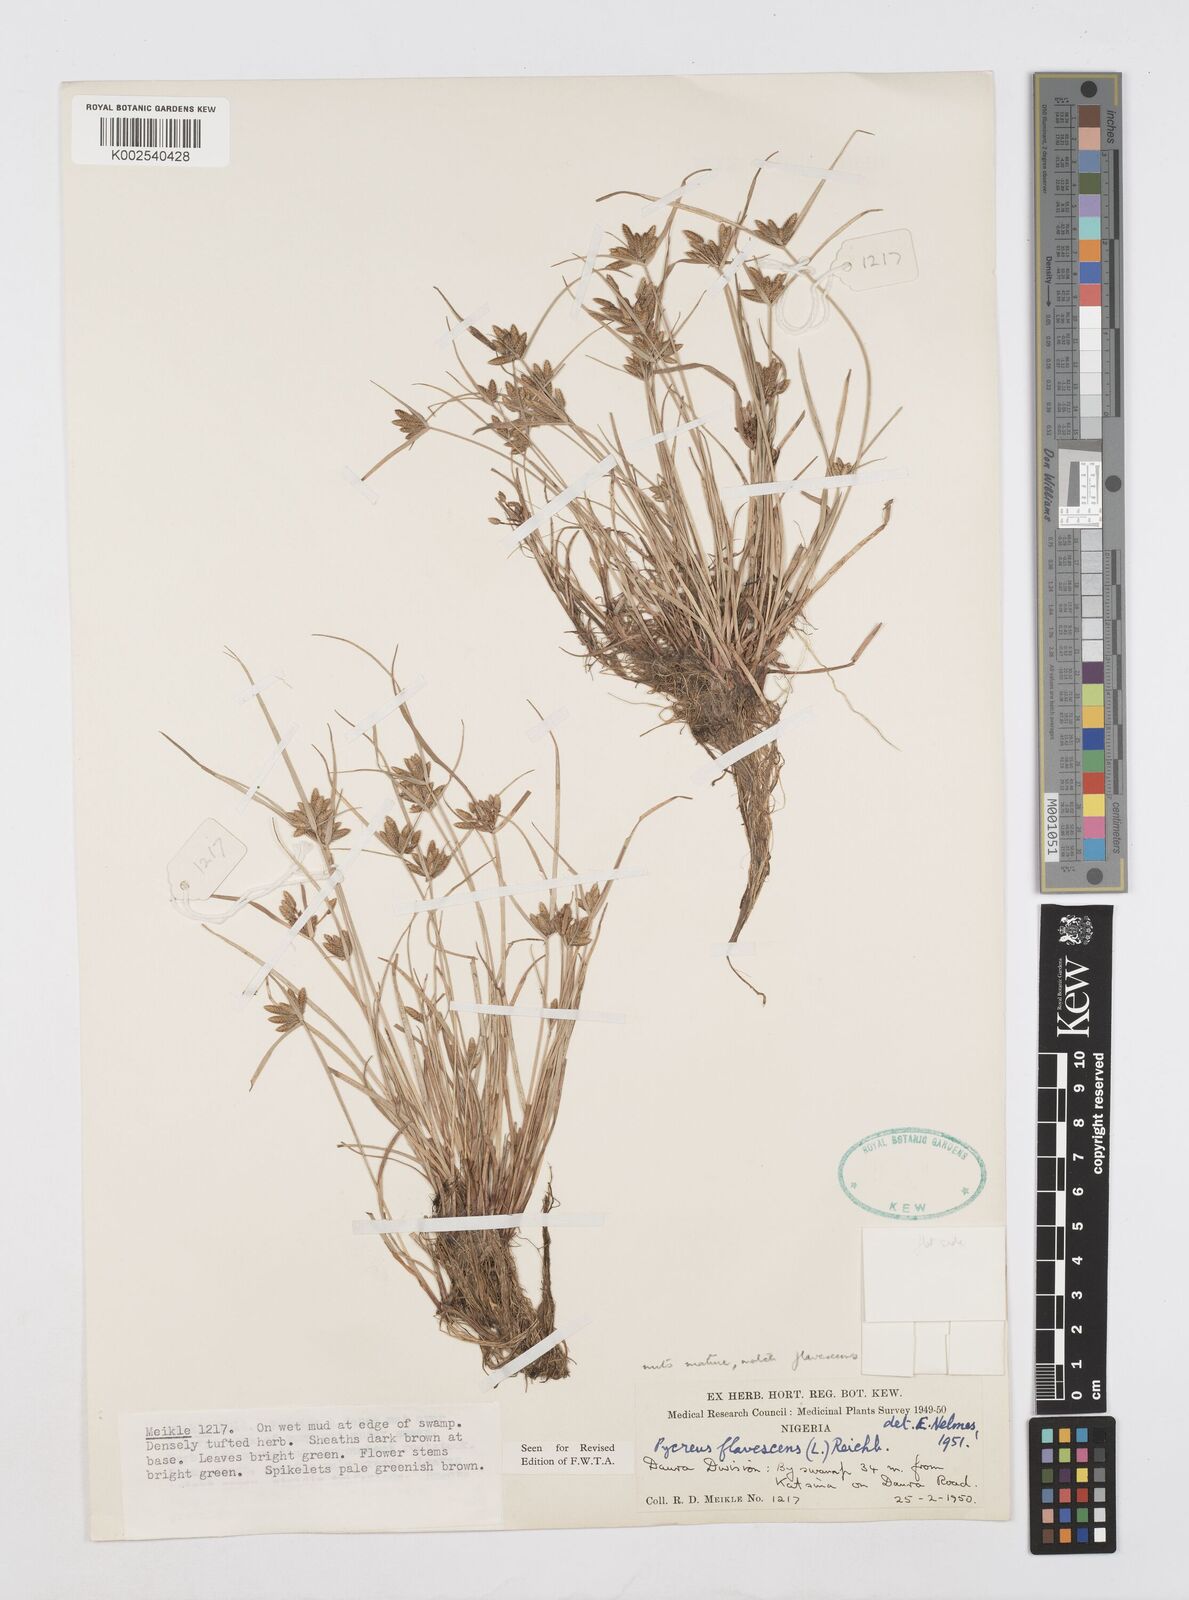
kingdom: Plantae
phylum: Tracheophyta
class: Liliopsida
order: Poales
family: Cyperaceae
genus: Cyperus
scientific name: Cyperus flavescens
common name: Yellow galingale
